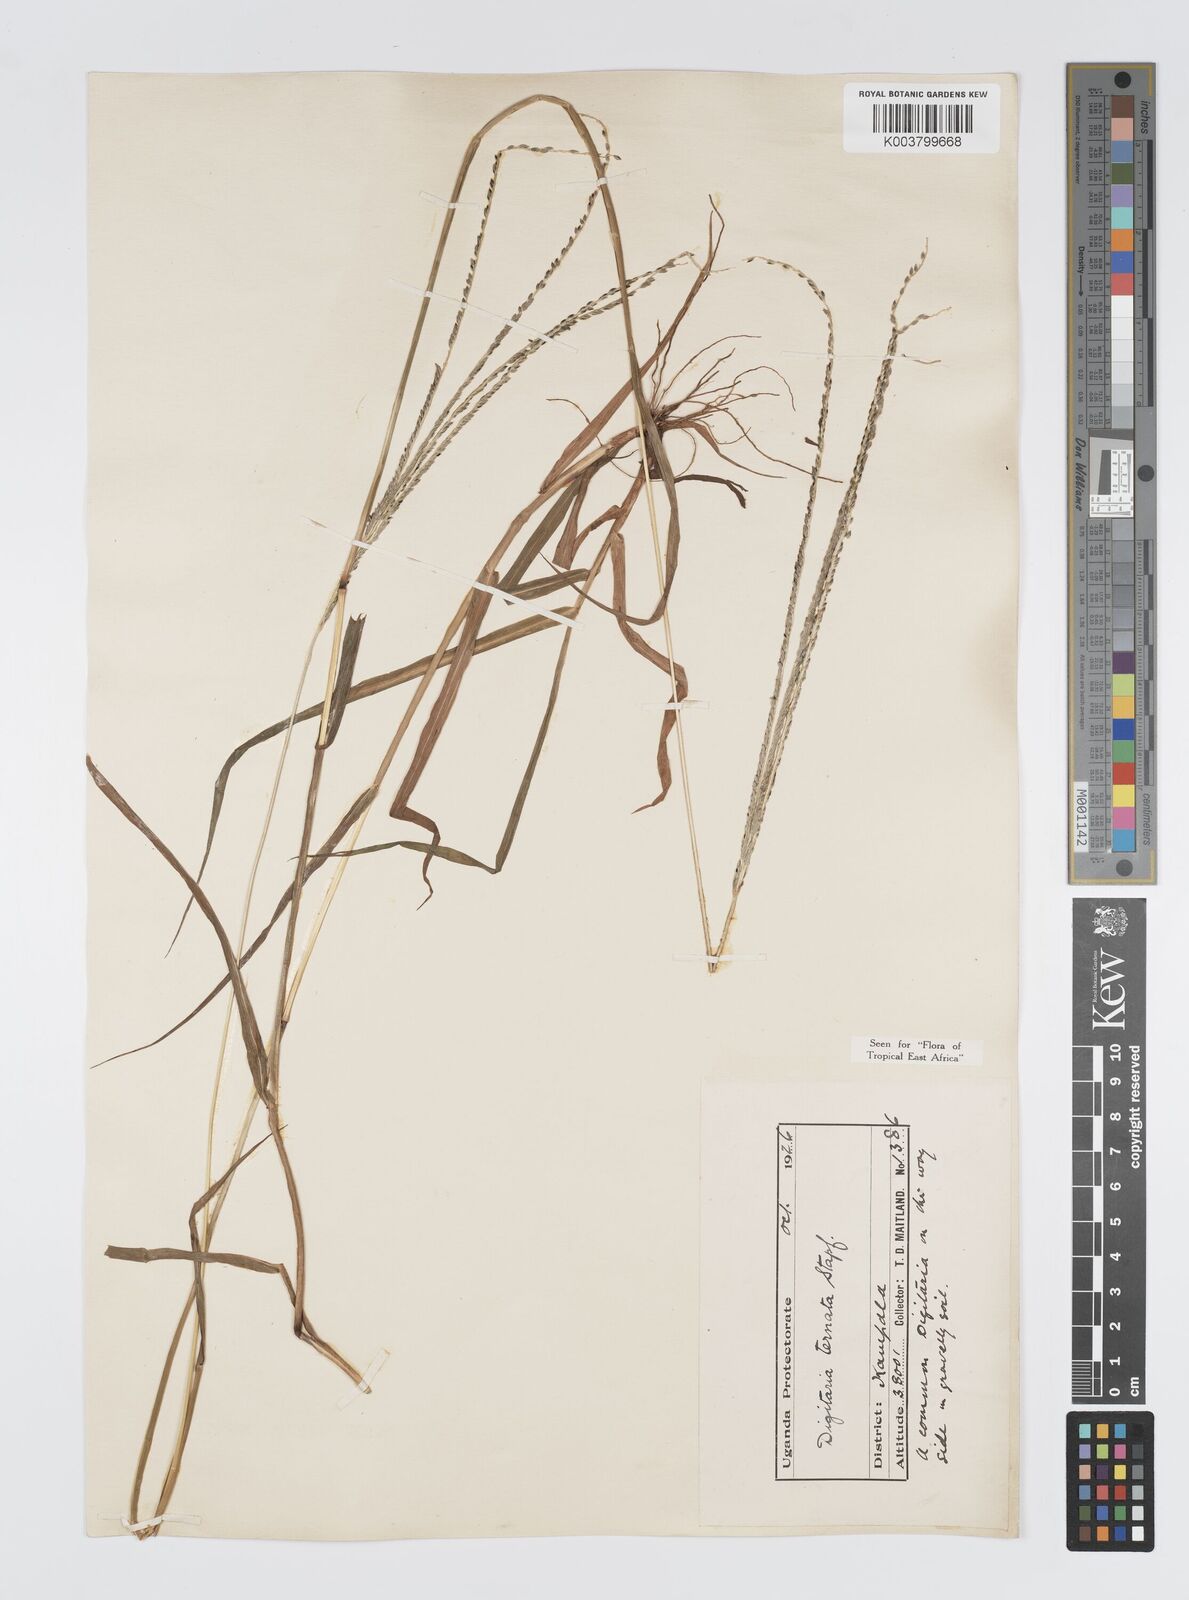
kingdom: Plantae
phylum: Tracheophyta
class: Liliopsida
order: Poales
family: Poaceae
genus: Digitaria
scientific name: Digitaria ternata
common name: Blackseed crabgrass
